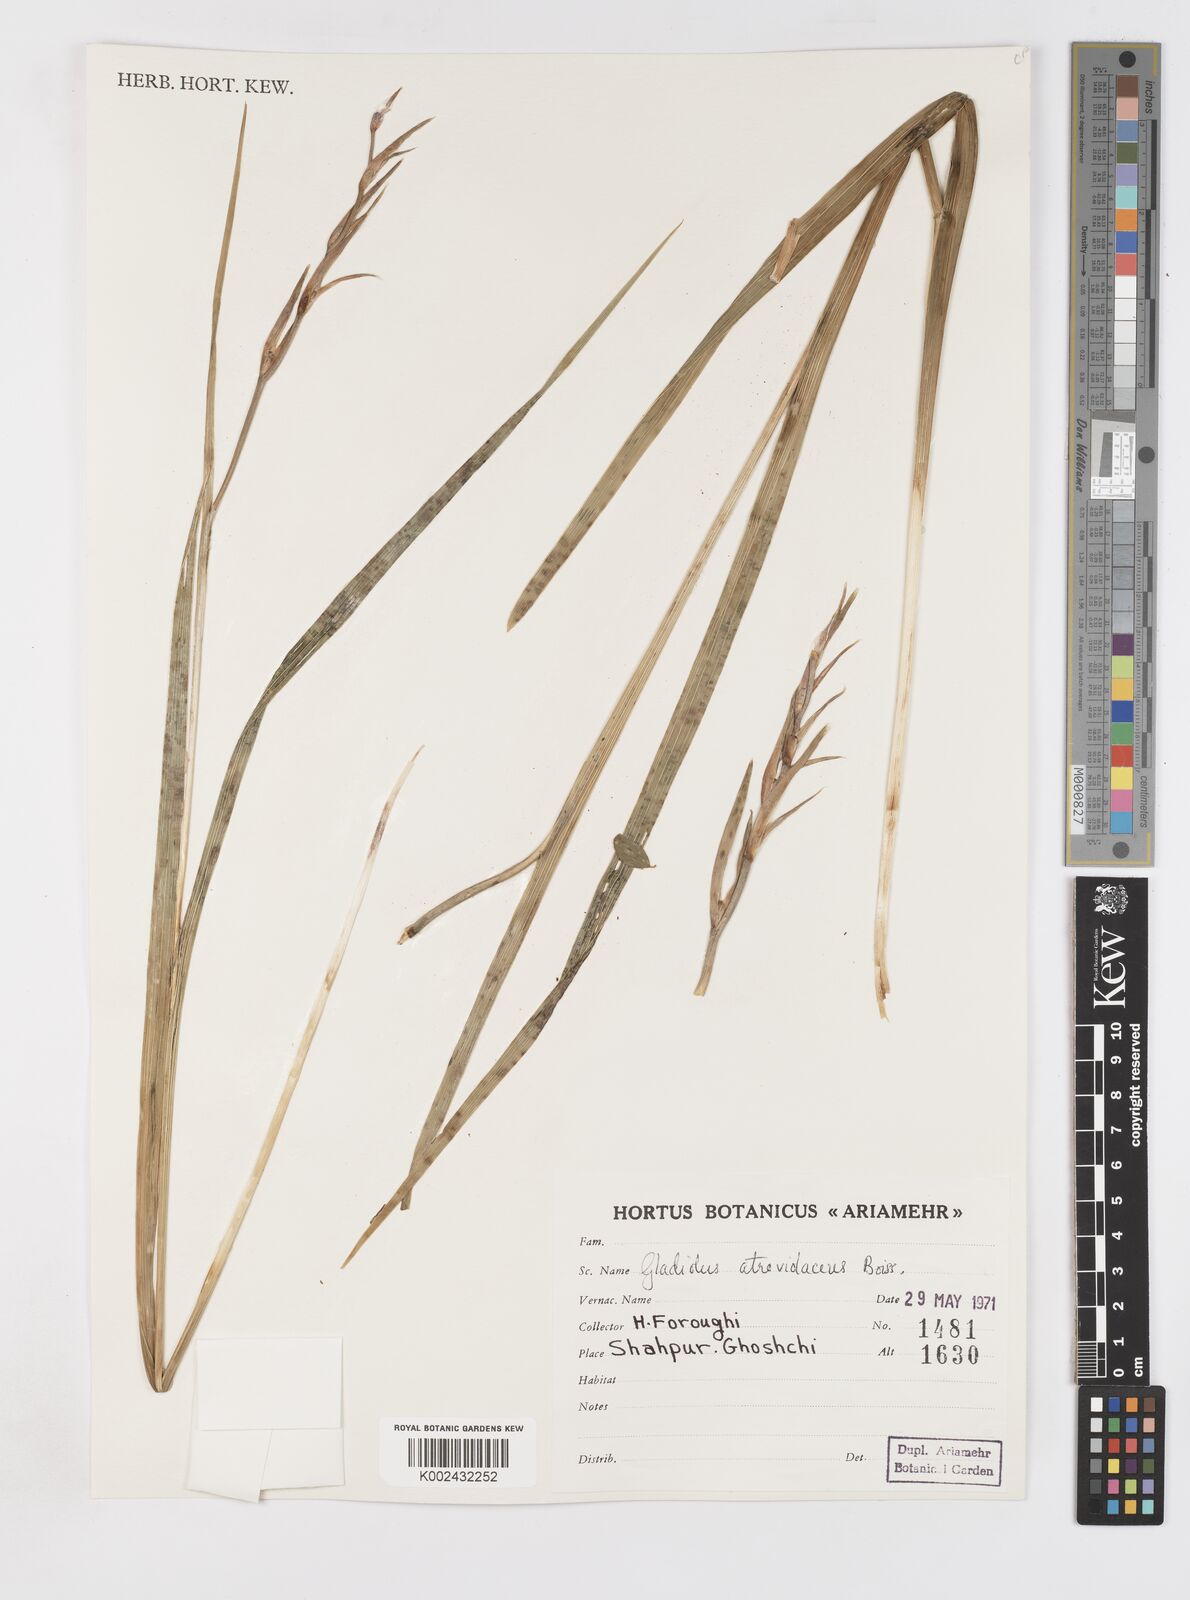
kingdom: Plantae
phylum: Tracheophyta
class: Liliopsida
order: Asparagales
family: Iridaceae
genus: Gladiolus
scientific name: Gladiolus atroviolaceus
